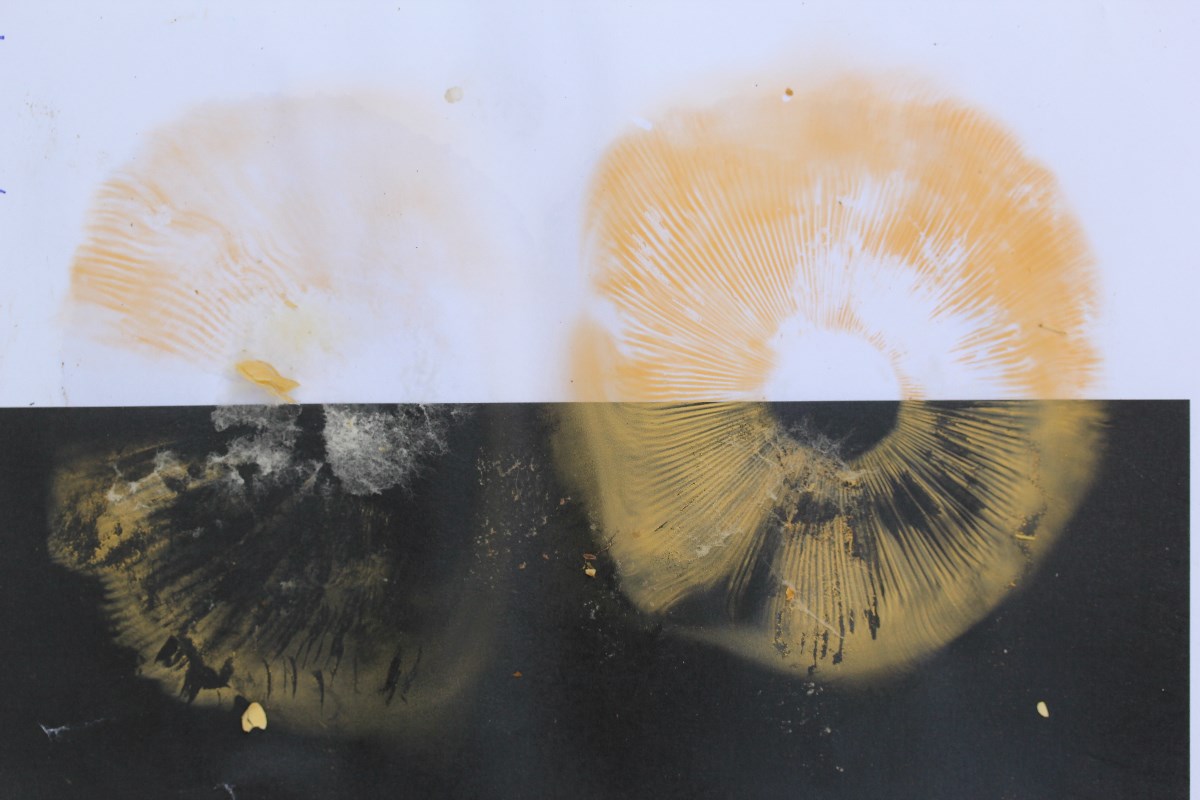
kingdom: Fungi
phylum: Basidiomycota
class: Agaricomycetes
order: Russulales
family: Russulaceae
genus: Russula
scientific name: Russula romellii
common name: romells skørhat
